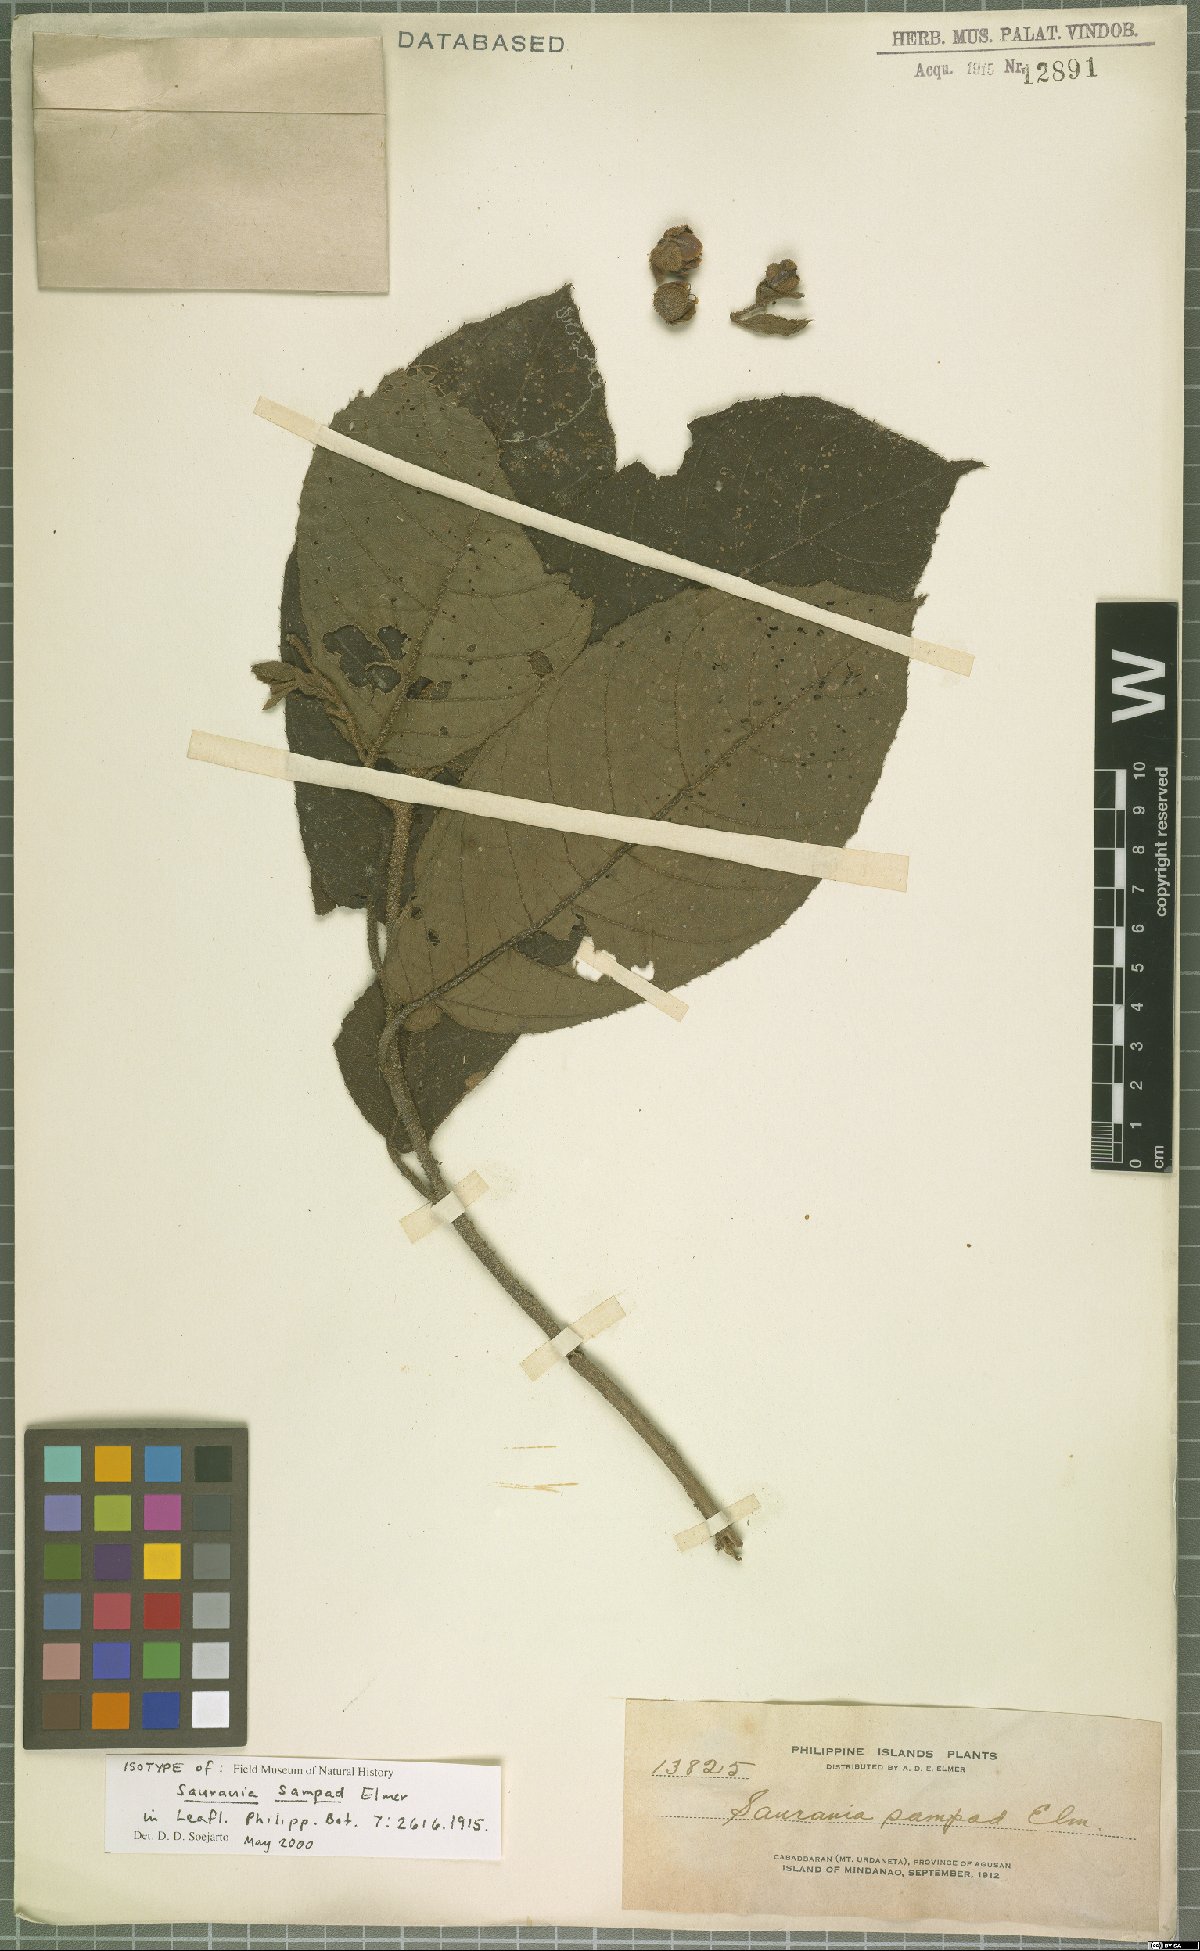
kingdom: Plantae
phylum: Tracheophyta
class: Magnoliopsida
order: Ericales
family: Actinidiaceae
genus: Saurauia
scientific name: Saurauia sampad
